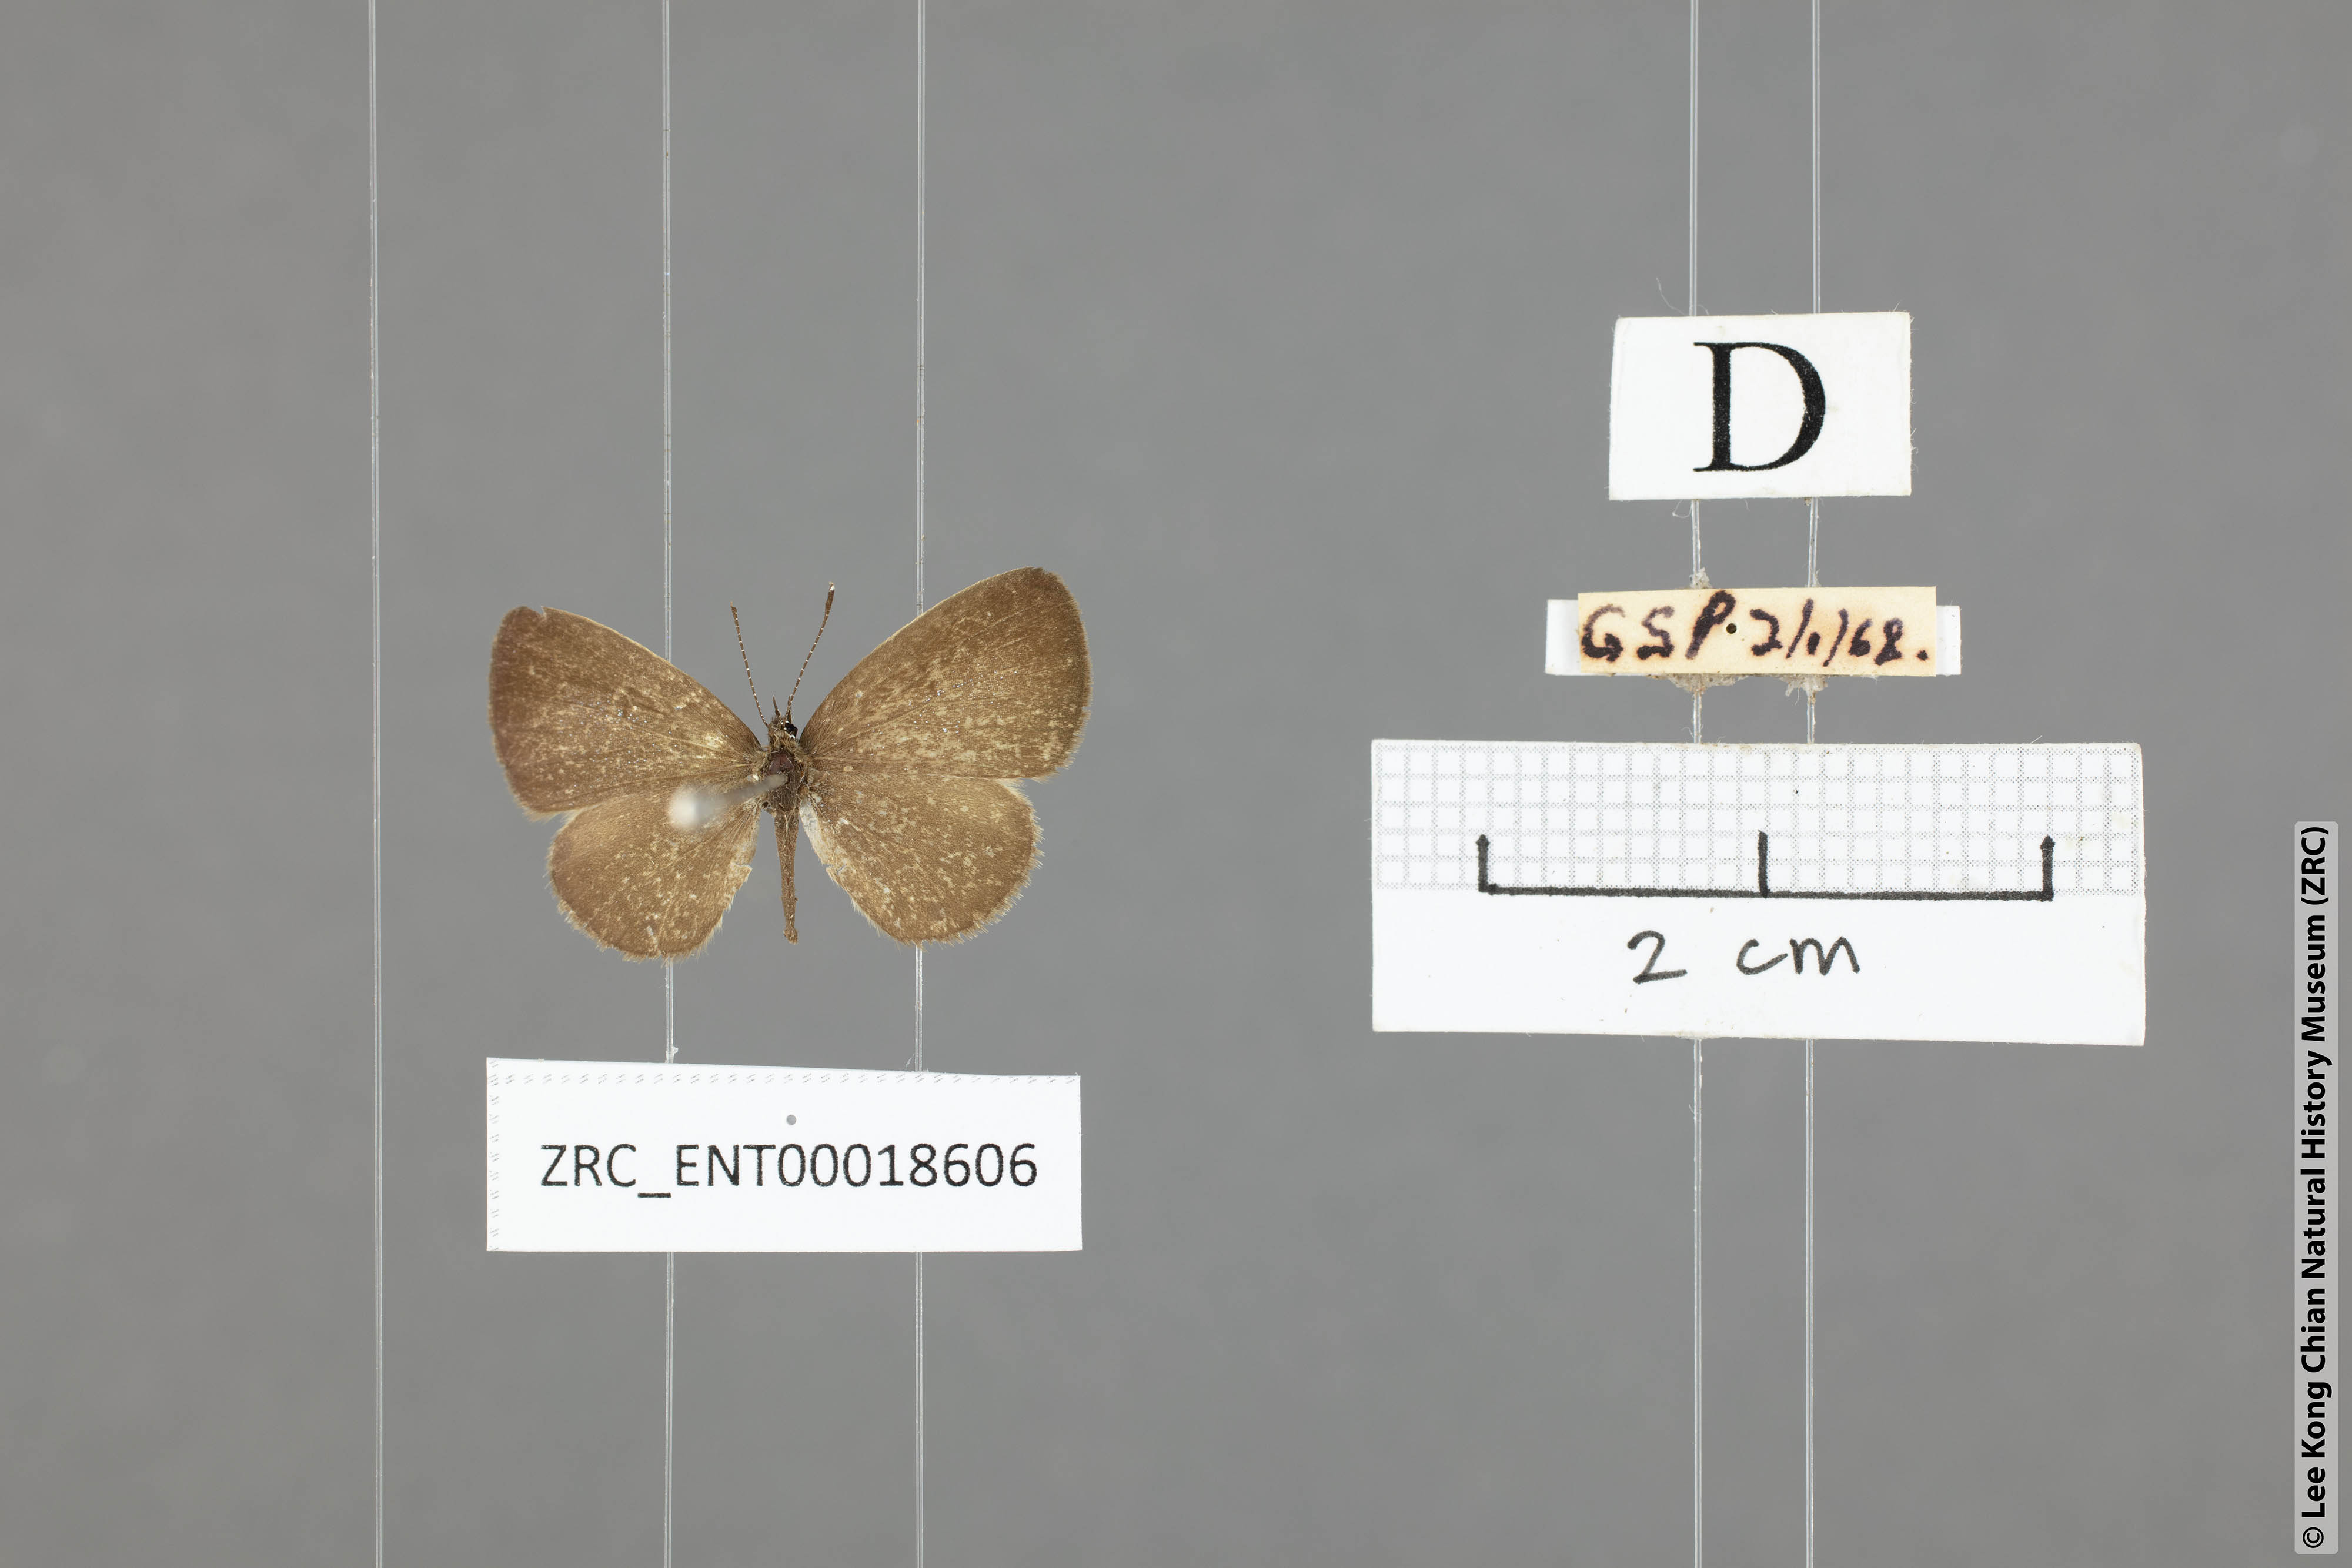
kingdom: Animalia
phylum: Arthropoda
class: Insecta
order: Lepidoptera
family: Lycaenidae
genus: Prosotas
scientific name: Prosotas lutea
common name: Brown lineblue
